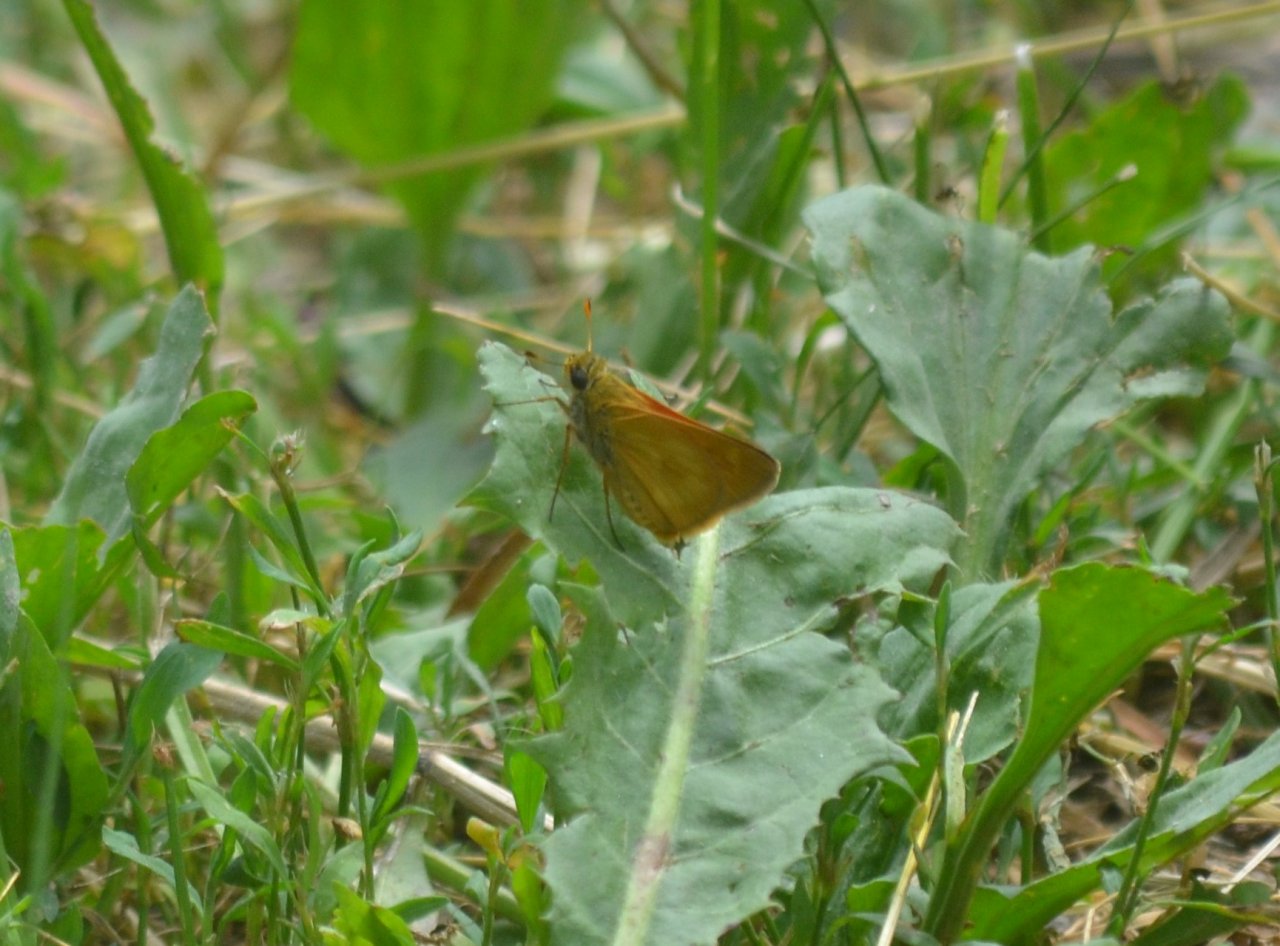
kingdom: Animalia
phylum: Arthropoda
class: Insecta
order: Lepidoptera
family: Hesperiidae
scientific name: Hesperiidae
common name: Skippers
